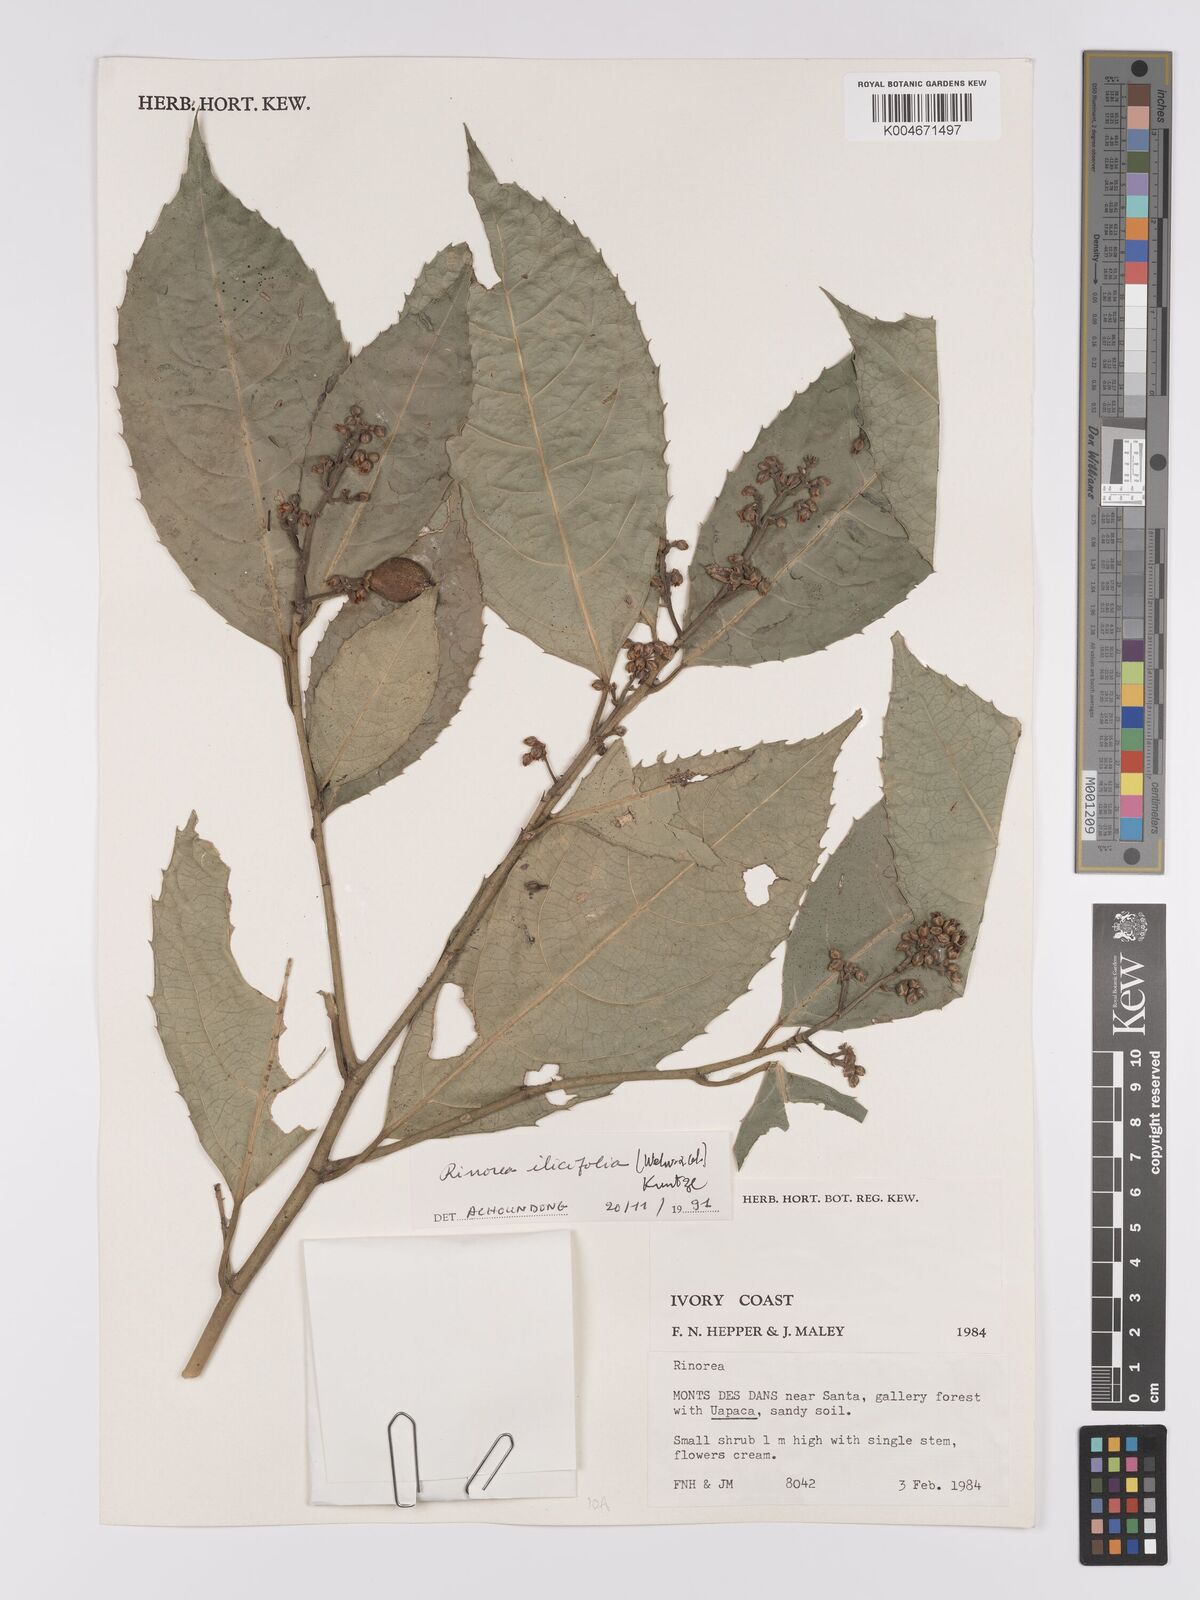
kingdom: Plantae
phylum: Tracheophyta
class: Magnoliopsida
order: Malpighiales
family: Violaceae
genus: Rinorea
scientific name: Rinorea ilicifolia
